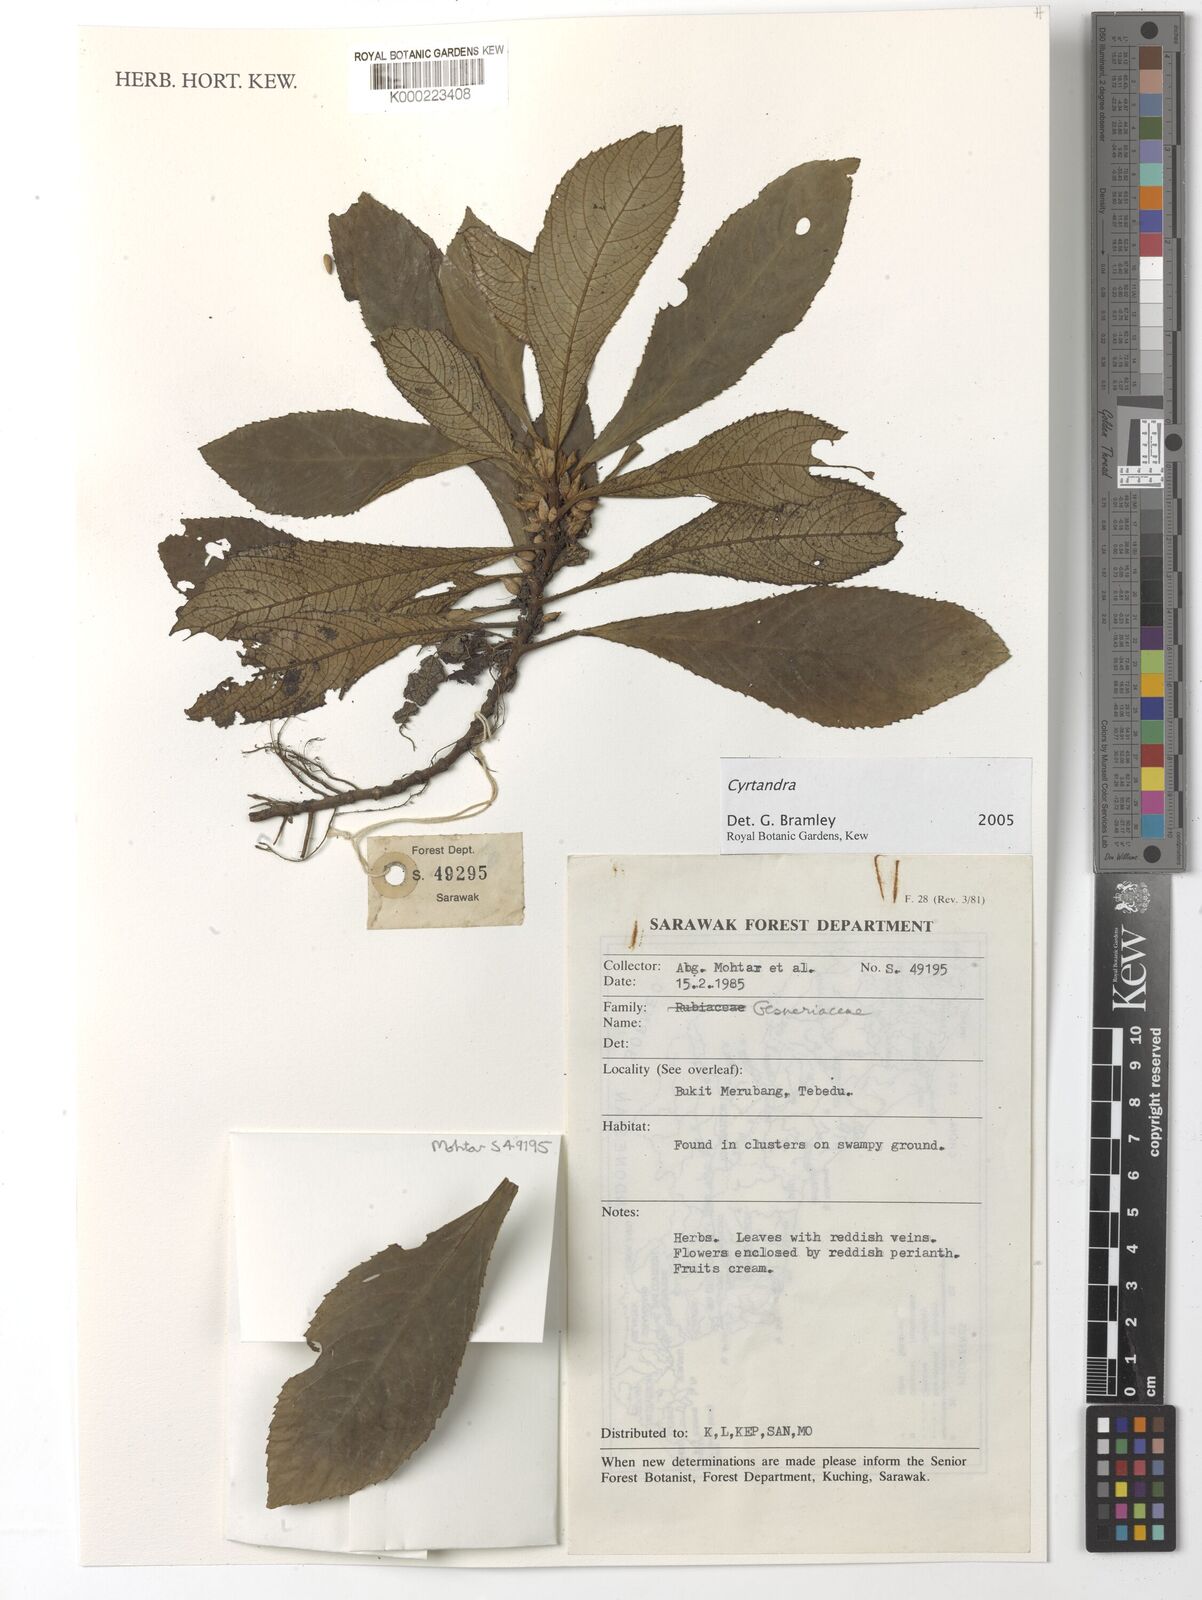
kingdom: Plantae
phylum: Tracheophyta
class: Magnoliopsida
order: Lamiales
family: Gesneriaceae
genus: Cyrtandra
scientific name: Cyrtandra
